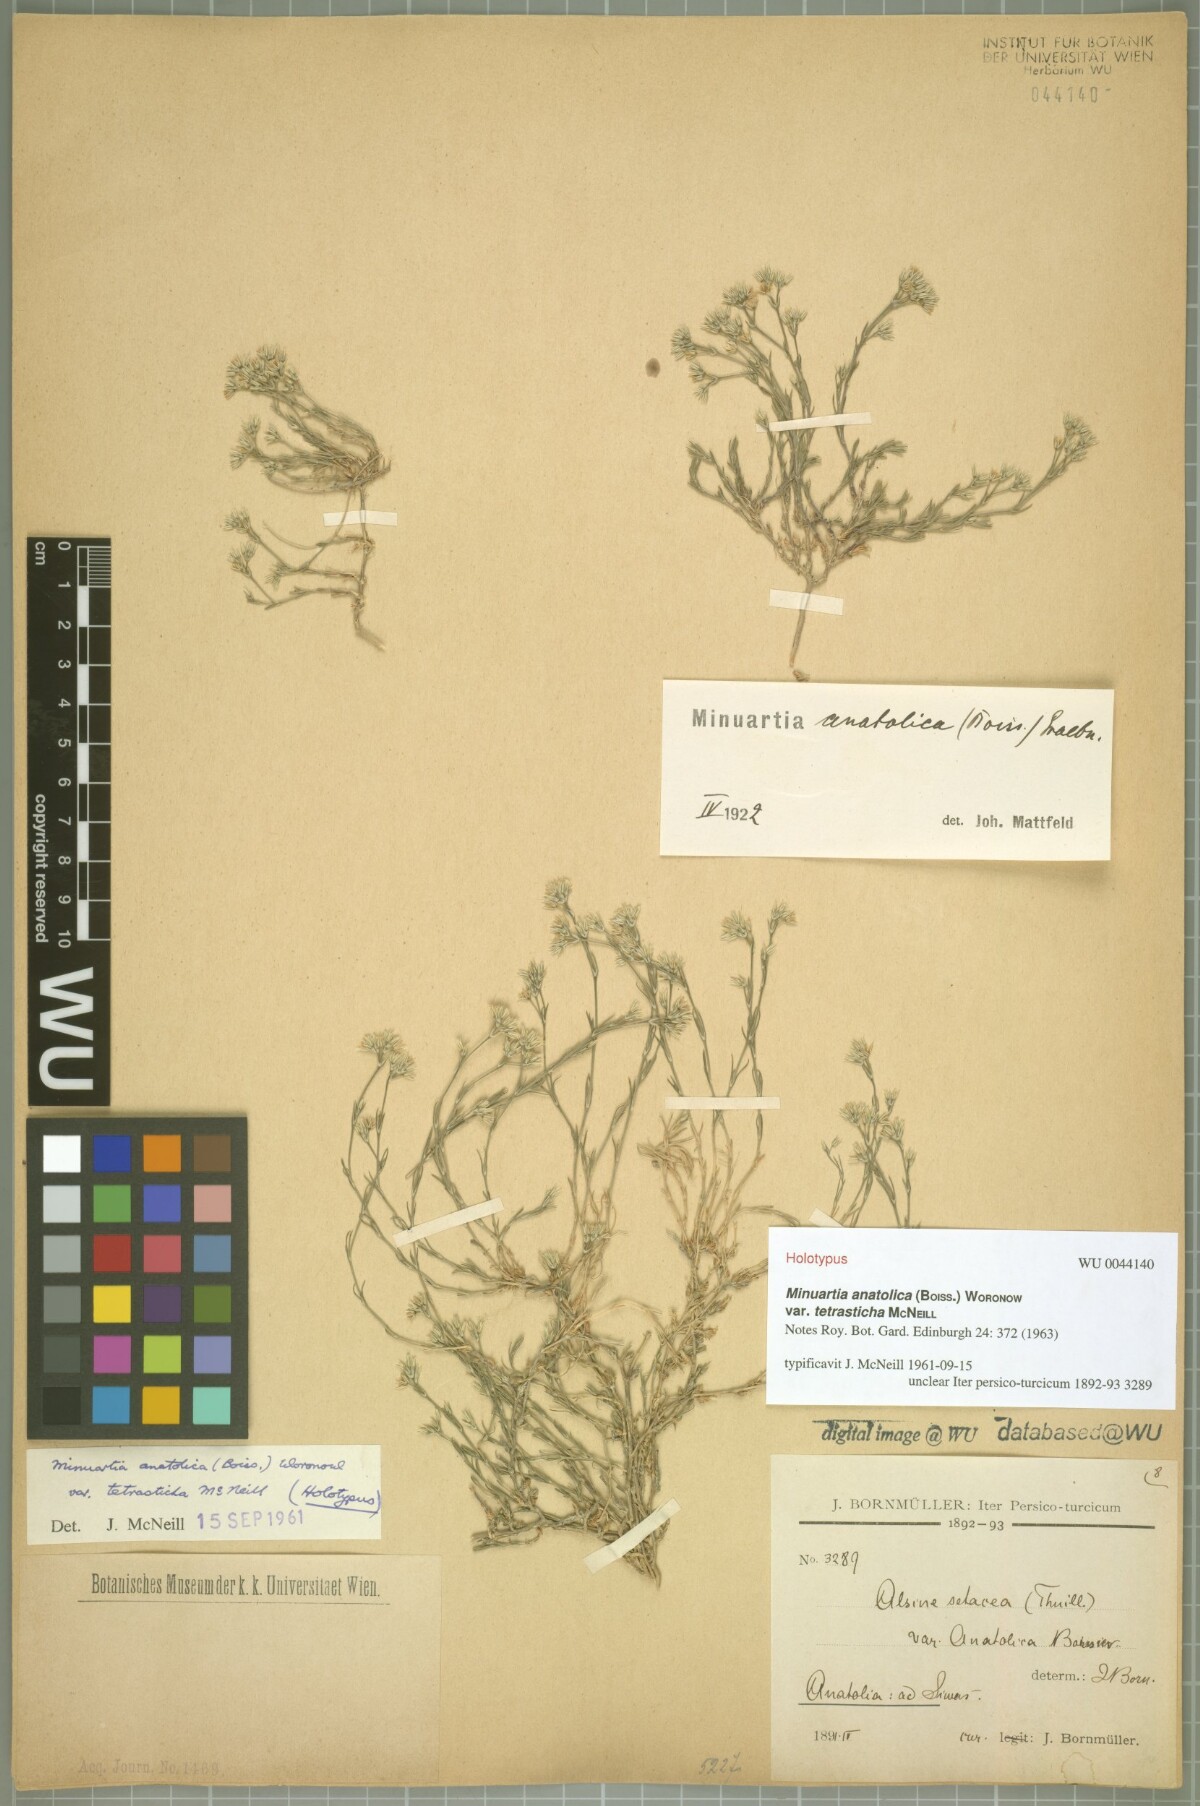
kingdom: Plantae
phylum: Tracheophyta
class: Magnoliopsida
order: Caryophyllales
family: Caryophyllaceae
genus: Minuartia
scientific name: Minuartia anatolica
